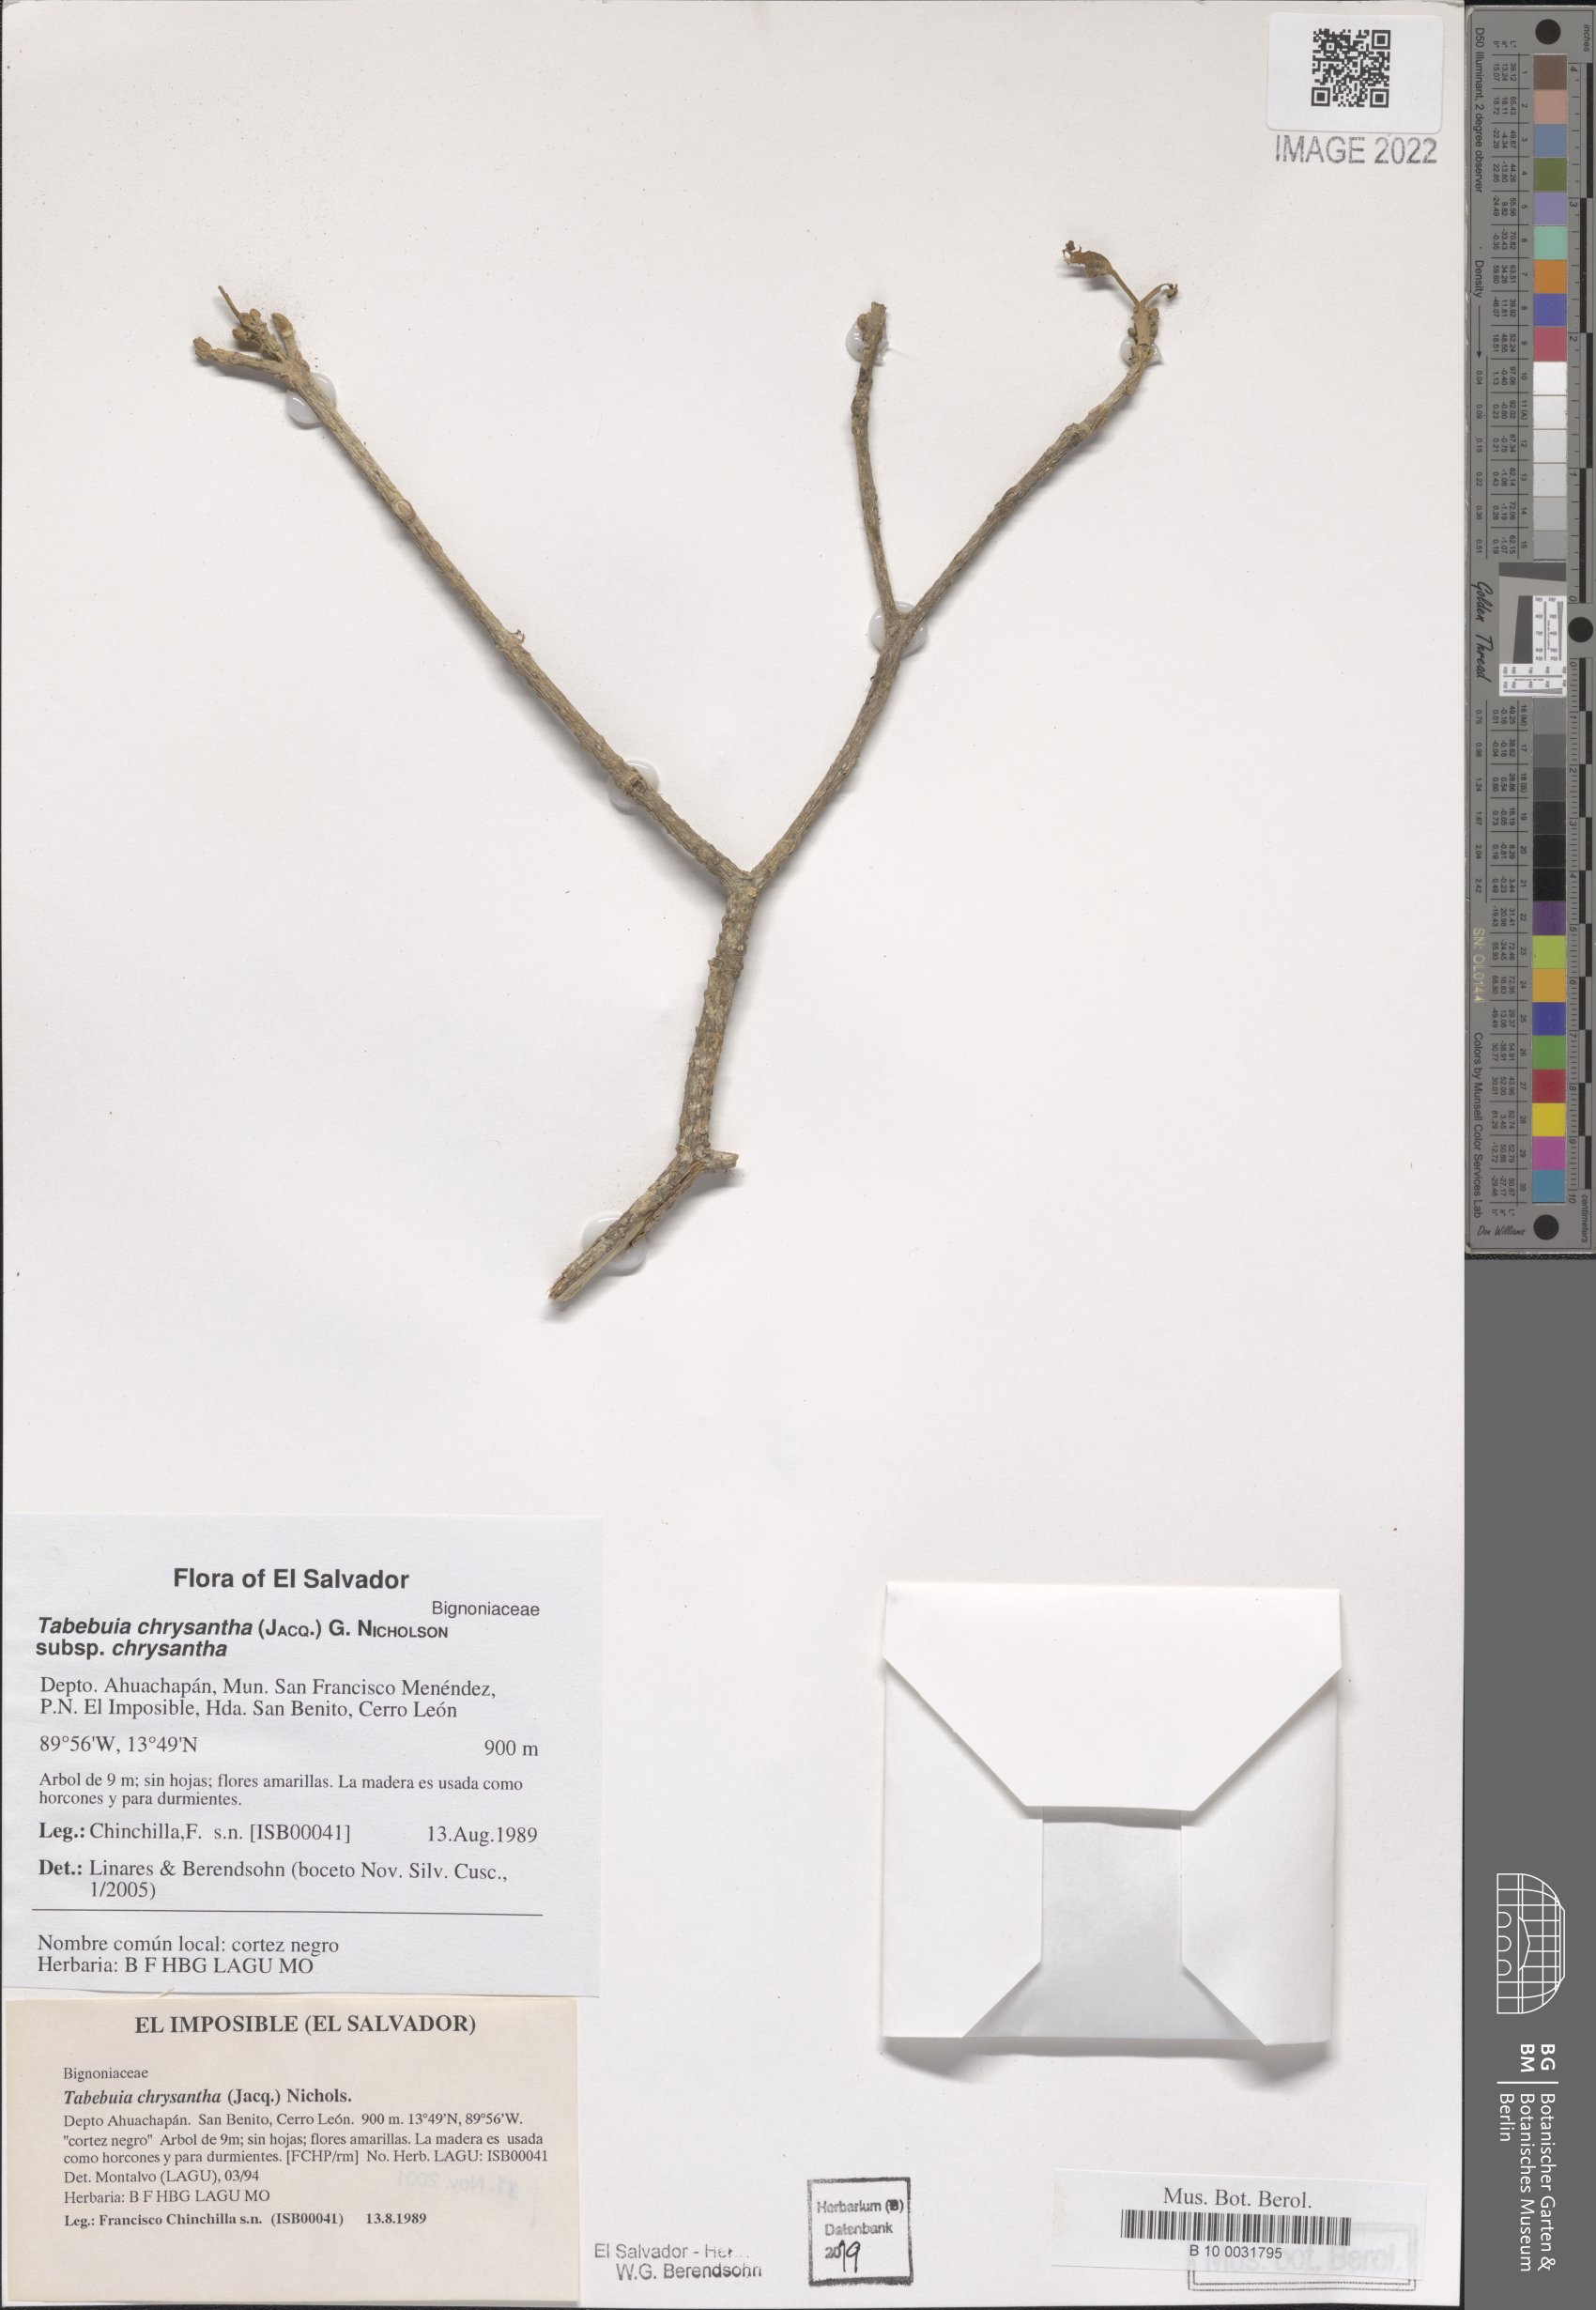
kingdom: Plantae
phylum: Tracheophyta
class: Magnoliopsida
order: Lamiales
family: Bignoniaceae
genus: Handroanthus
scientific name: Handroanthus chrysanthus
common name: Trumpet trees
